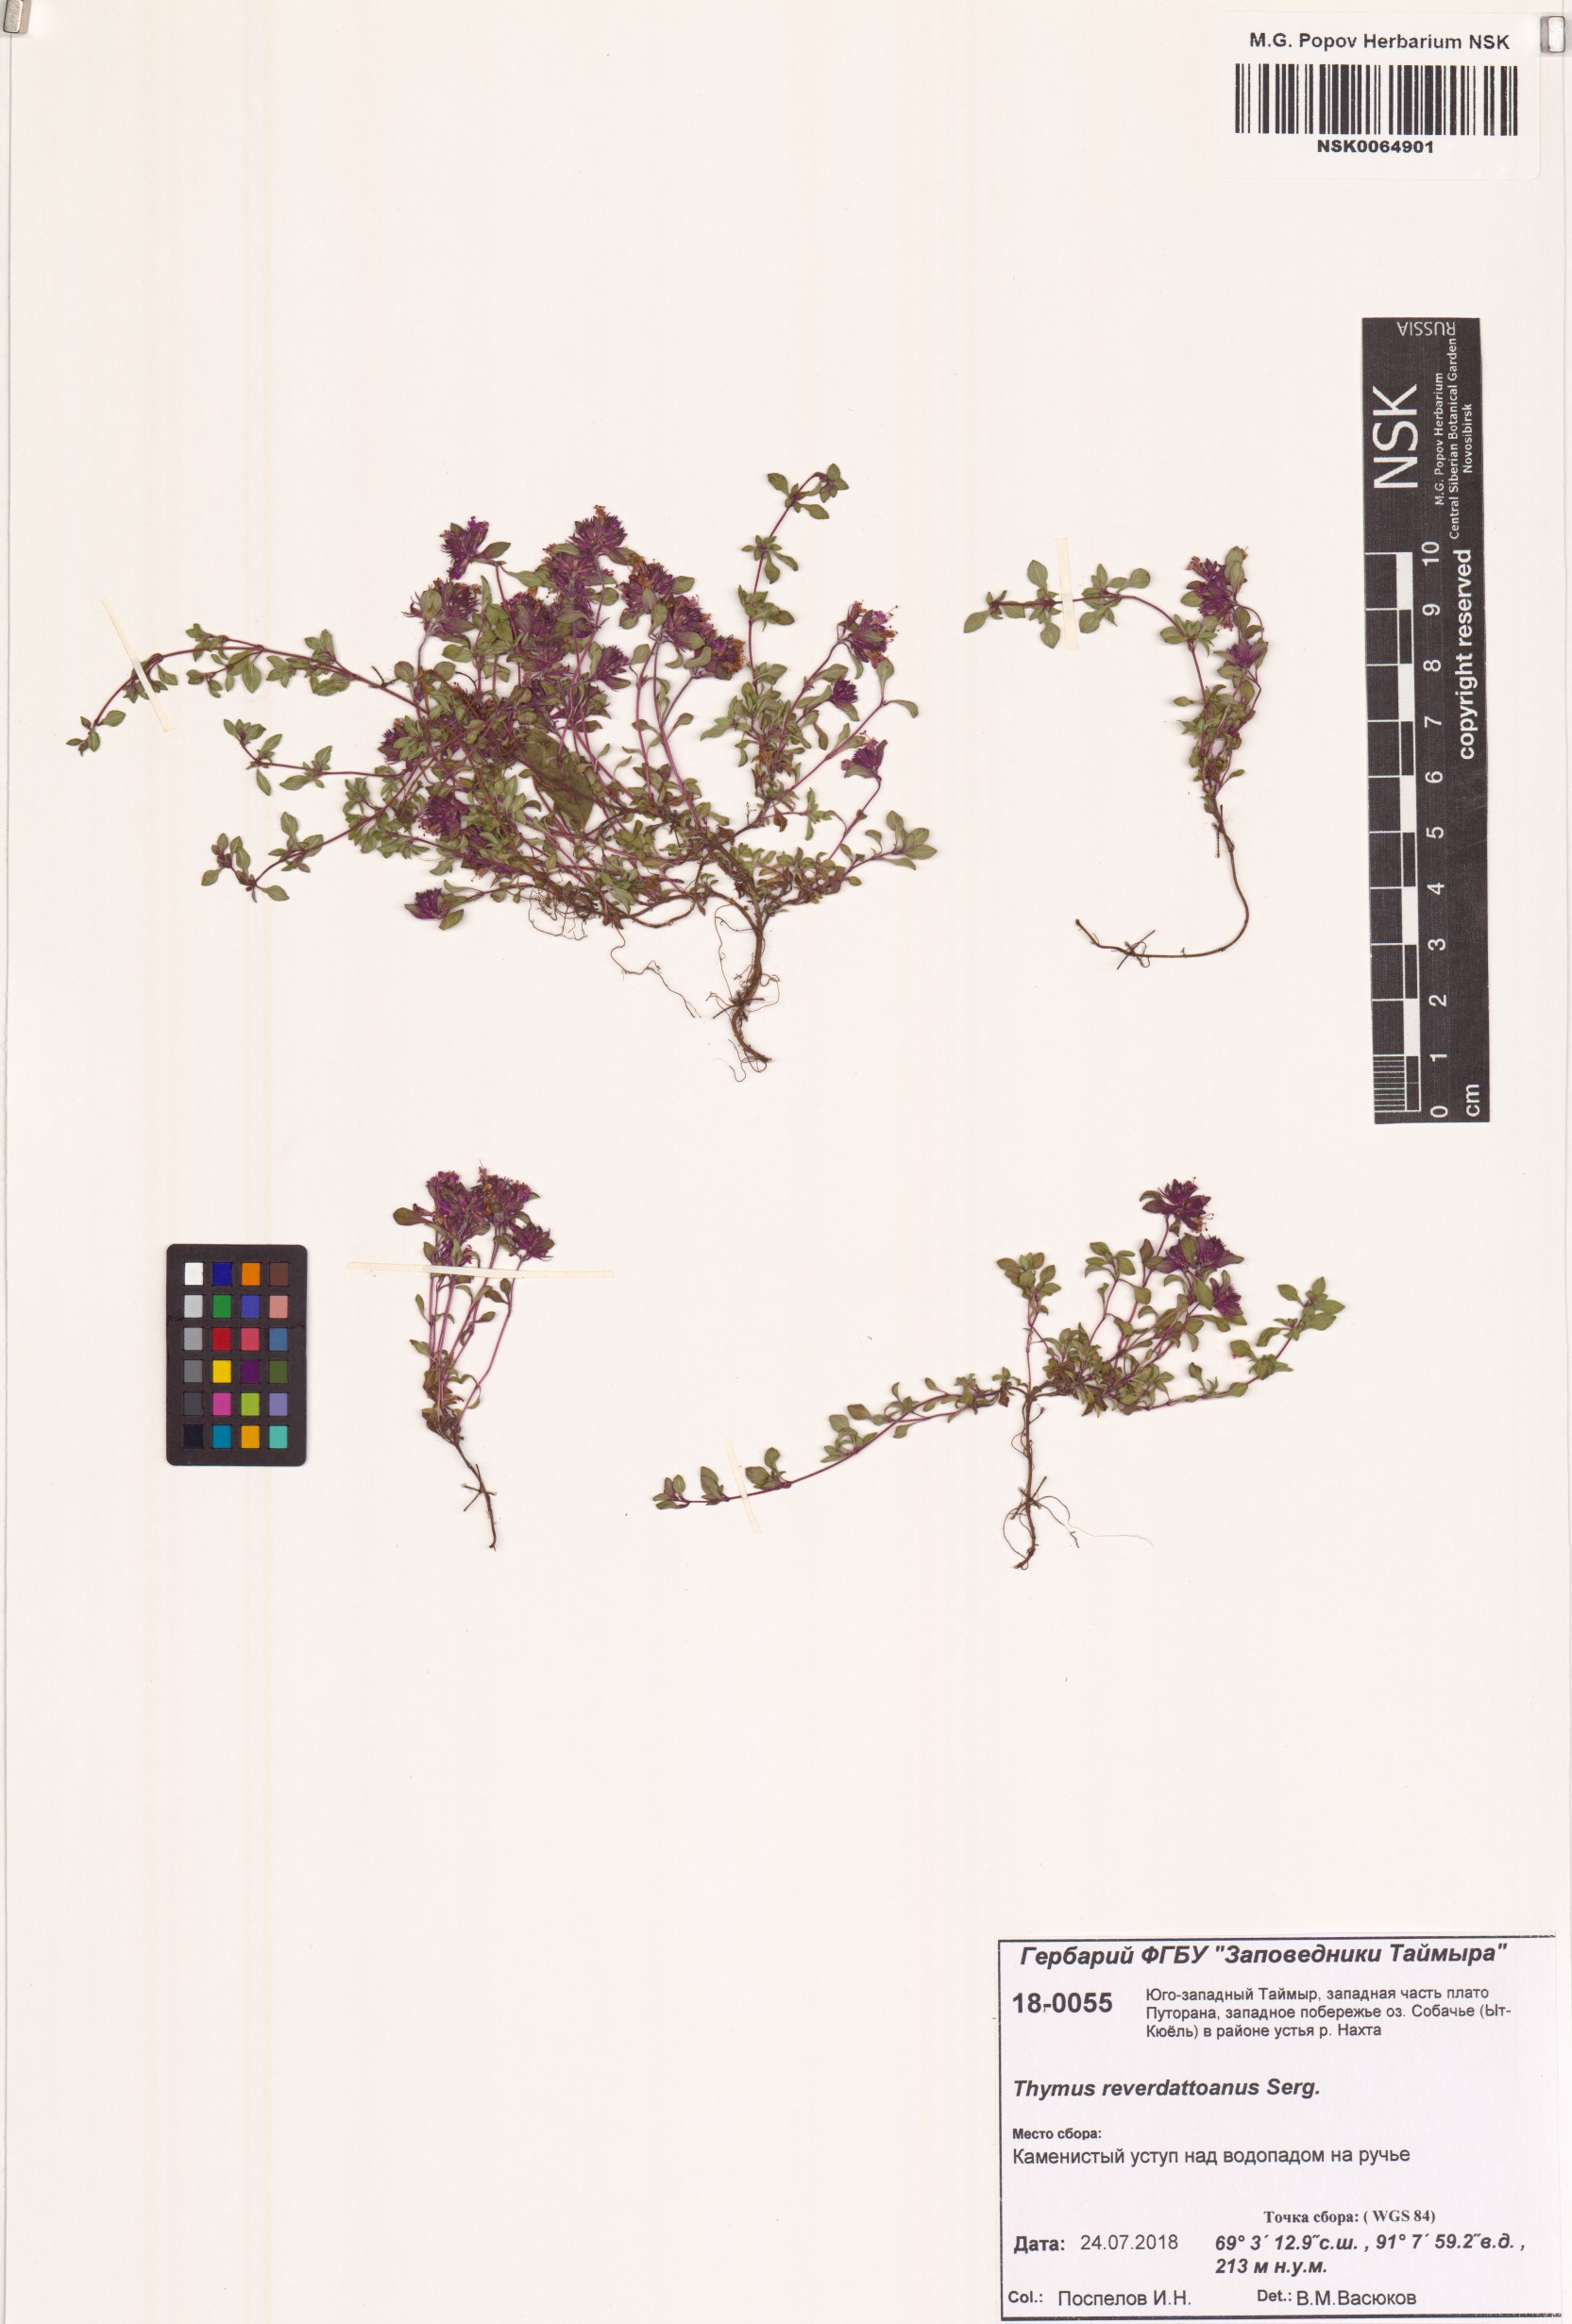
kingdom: Plantae
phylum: Tracheophyta
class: Magnoliopsida
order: Lamiales
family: Lamiaceae
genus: Thymus
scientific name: Thymus reverdattoanus
